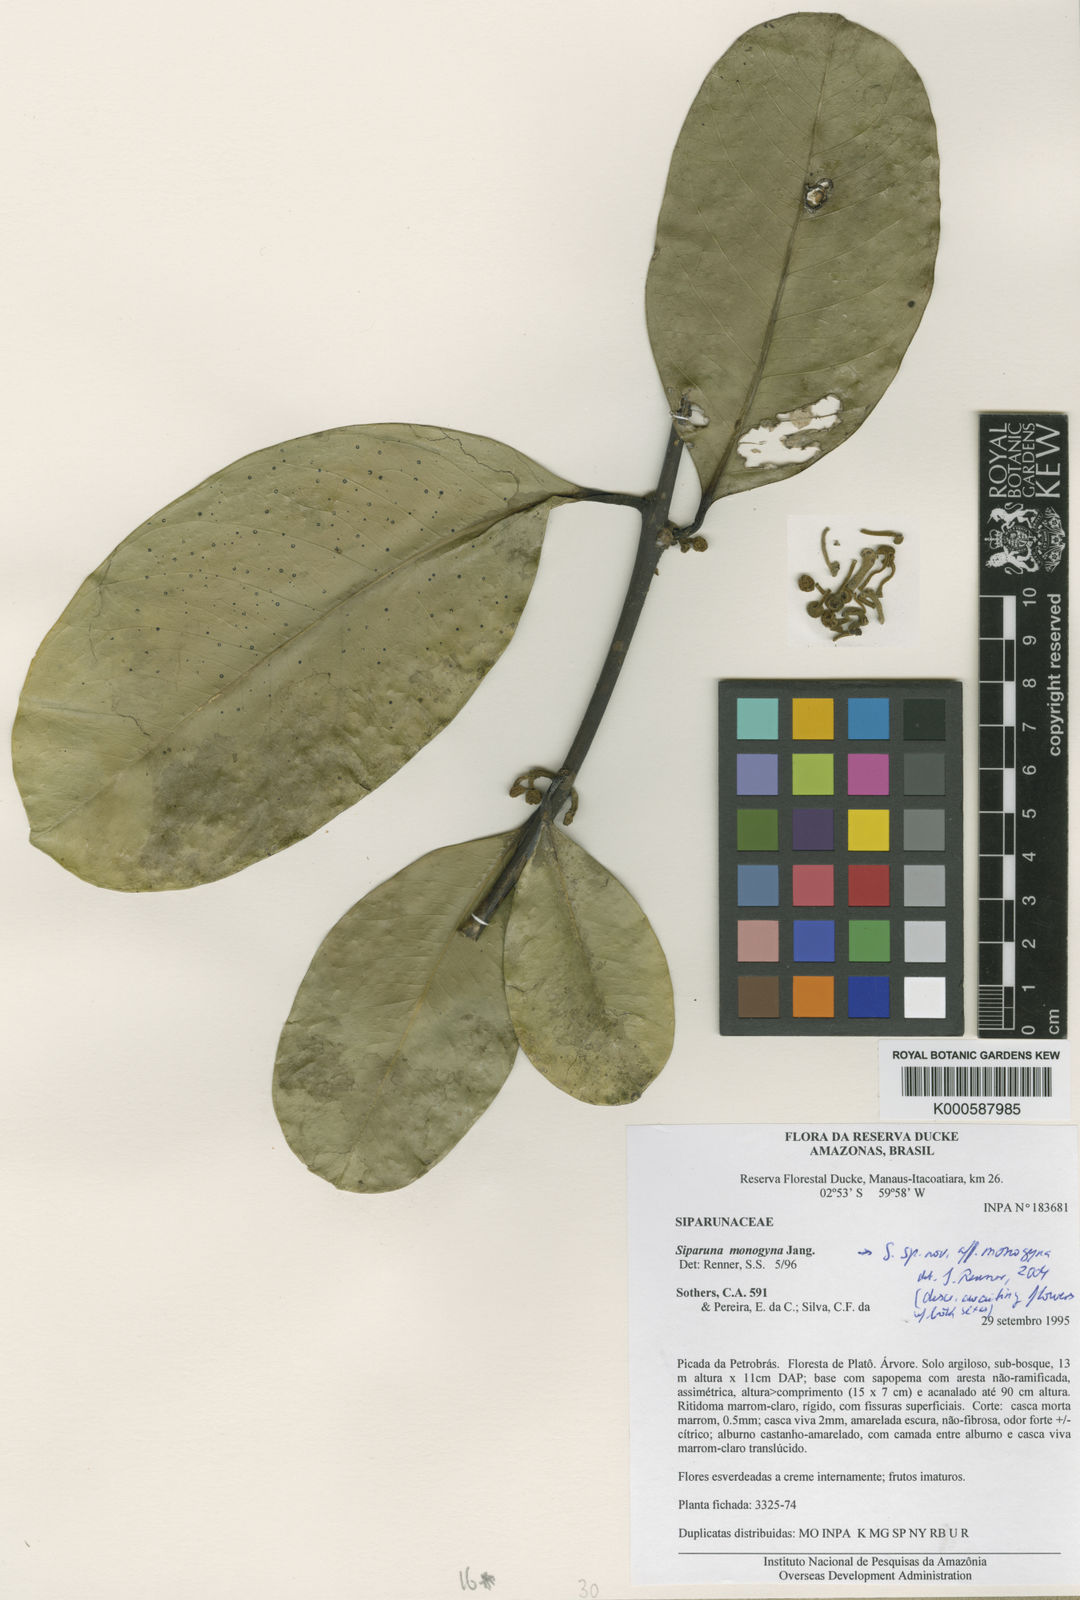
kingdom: Plantae
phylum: Tracheophyta
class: Magnoliopsida
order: Laurales
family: Siparunaceae
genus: Siparuna
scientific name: Siparuna cristata
